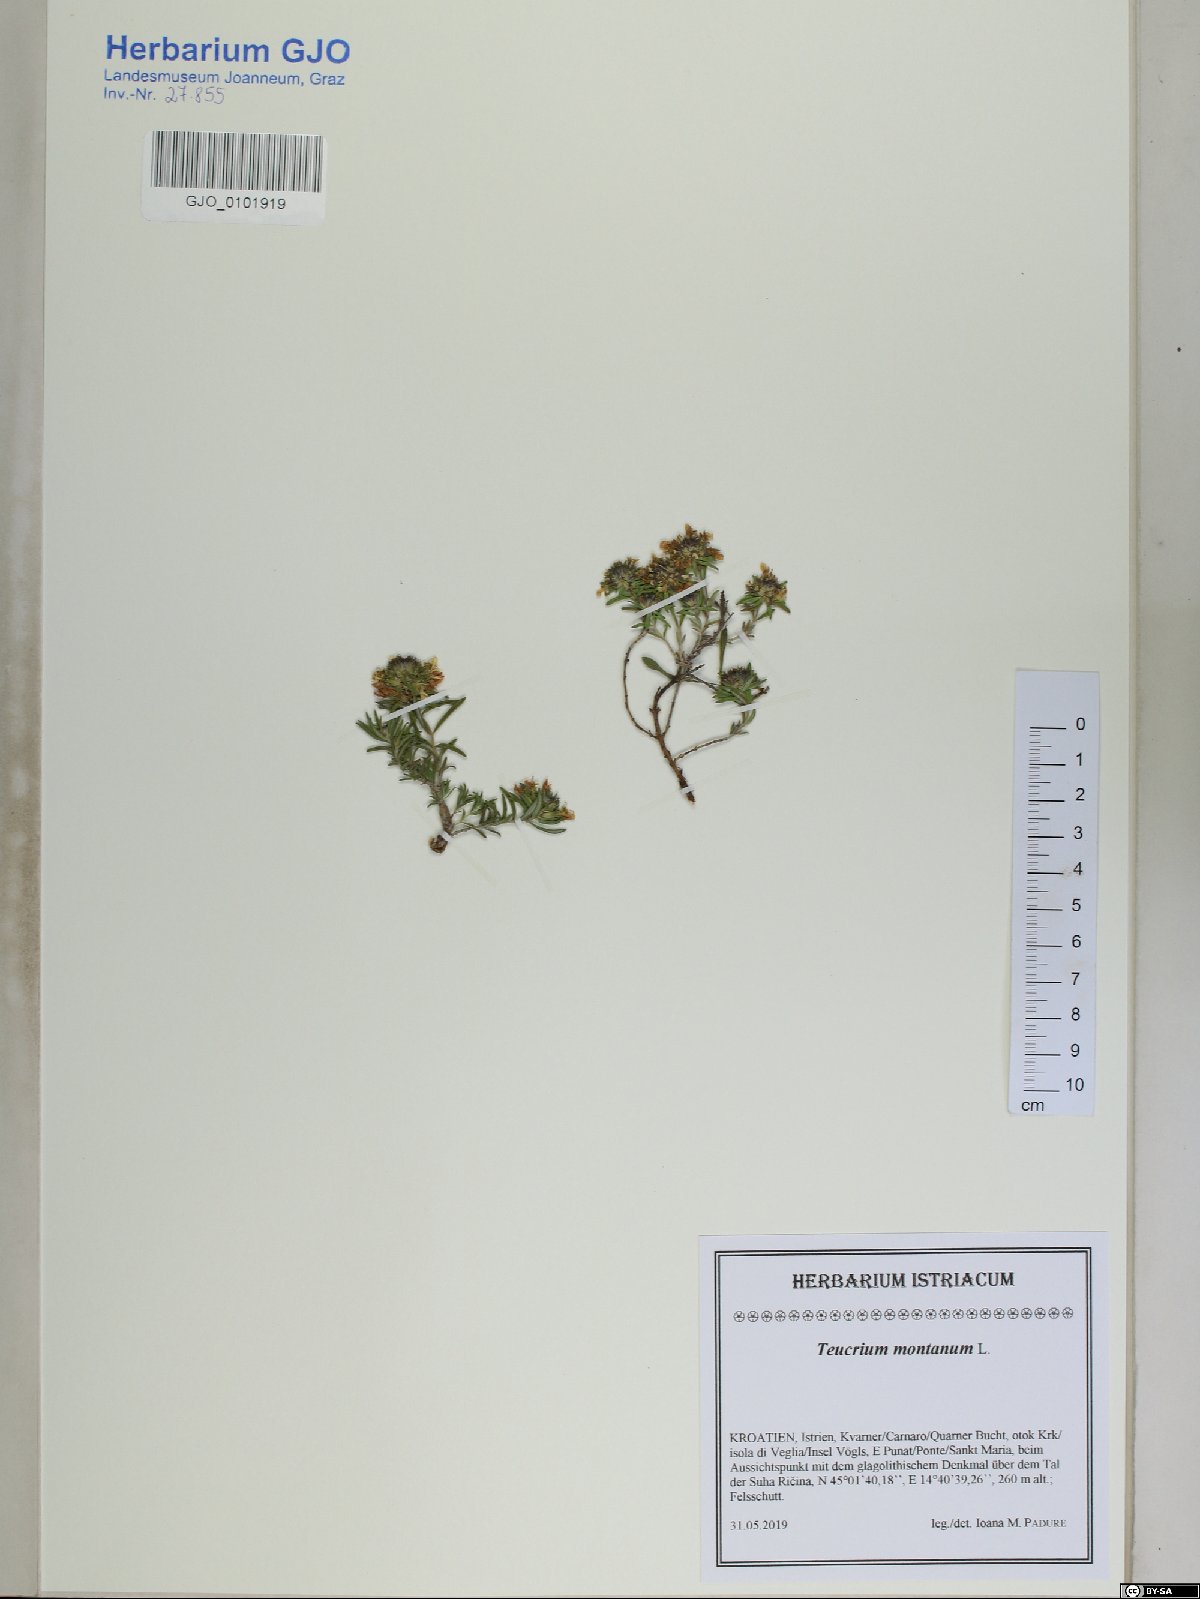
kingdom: Plantae
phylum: Tracheophyta
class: Magnoliopsida
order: Lamiales
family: Lamiaceae
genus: Teucrium
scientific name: Teucrium montanum
